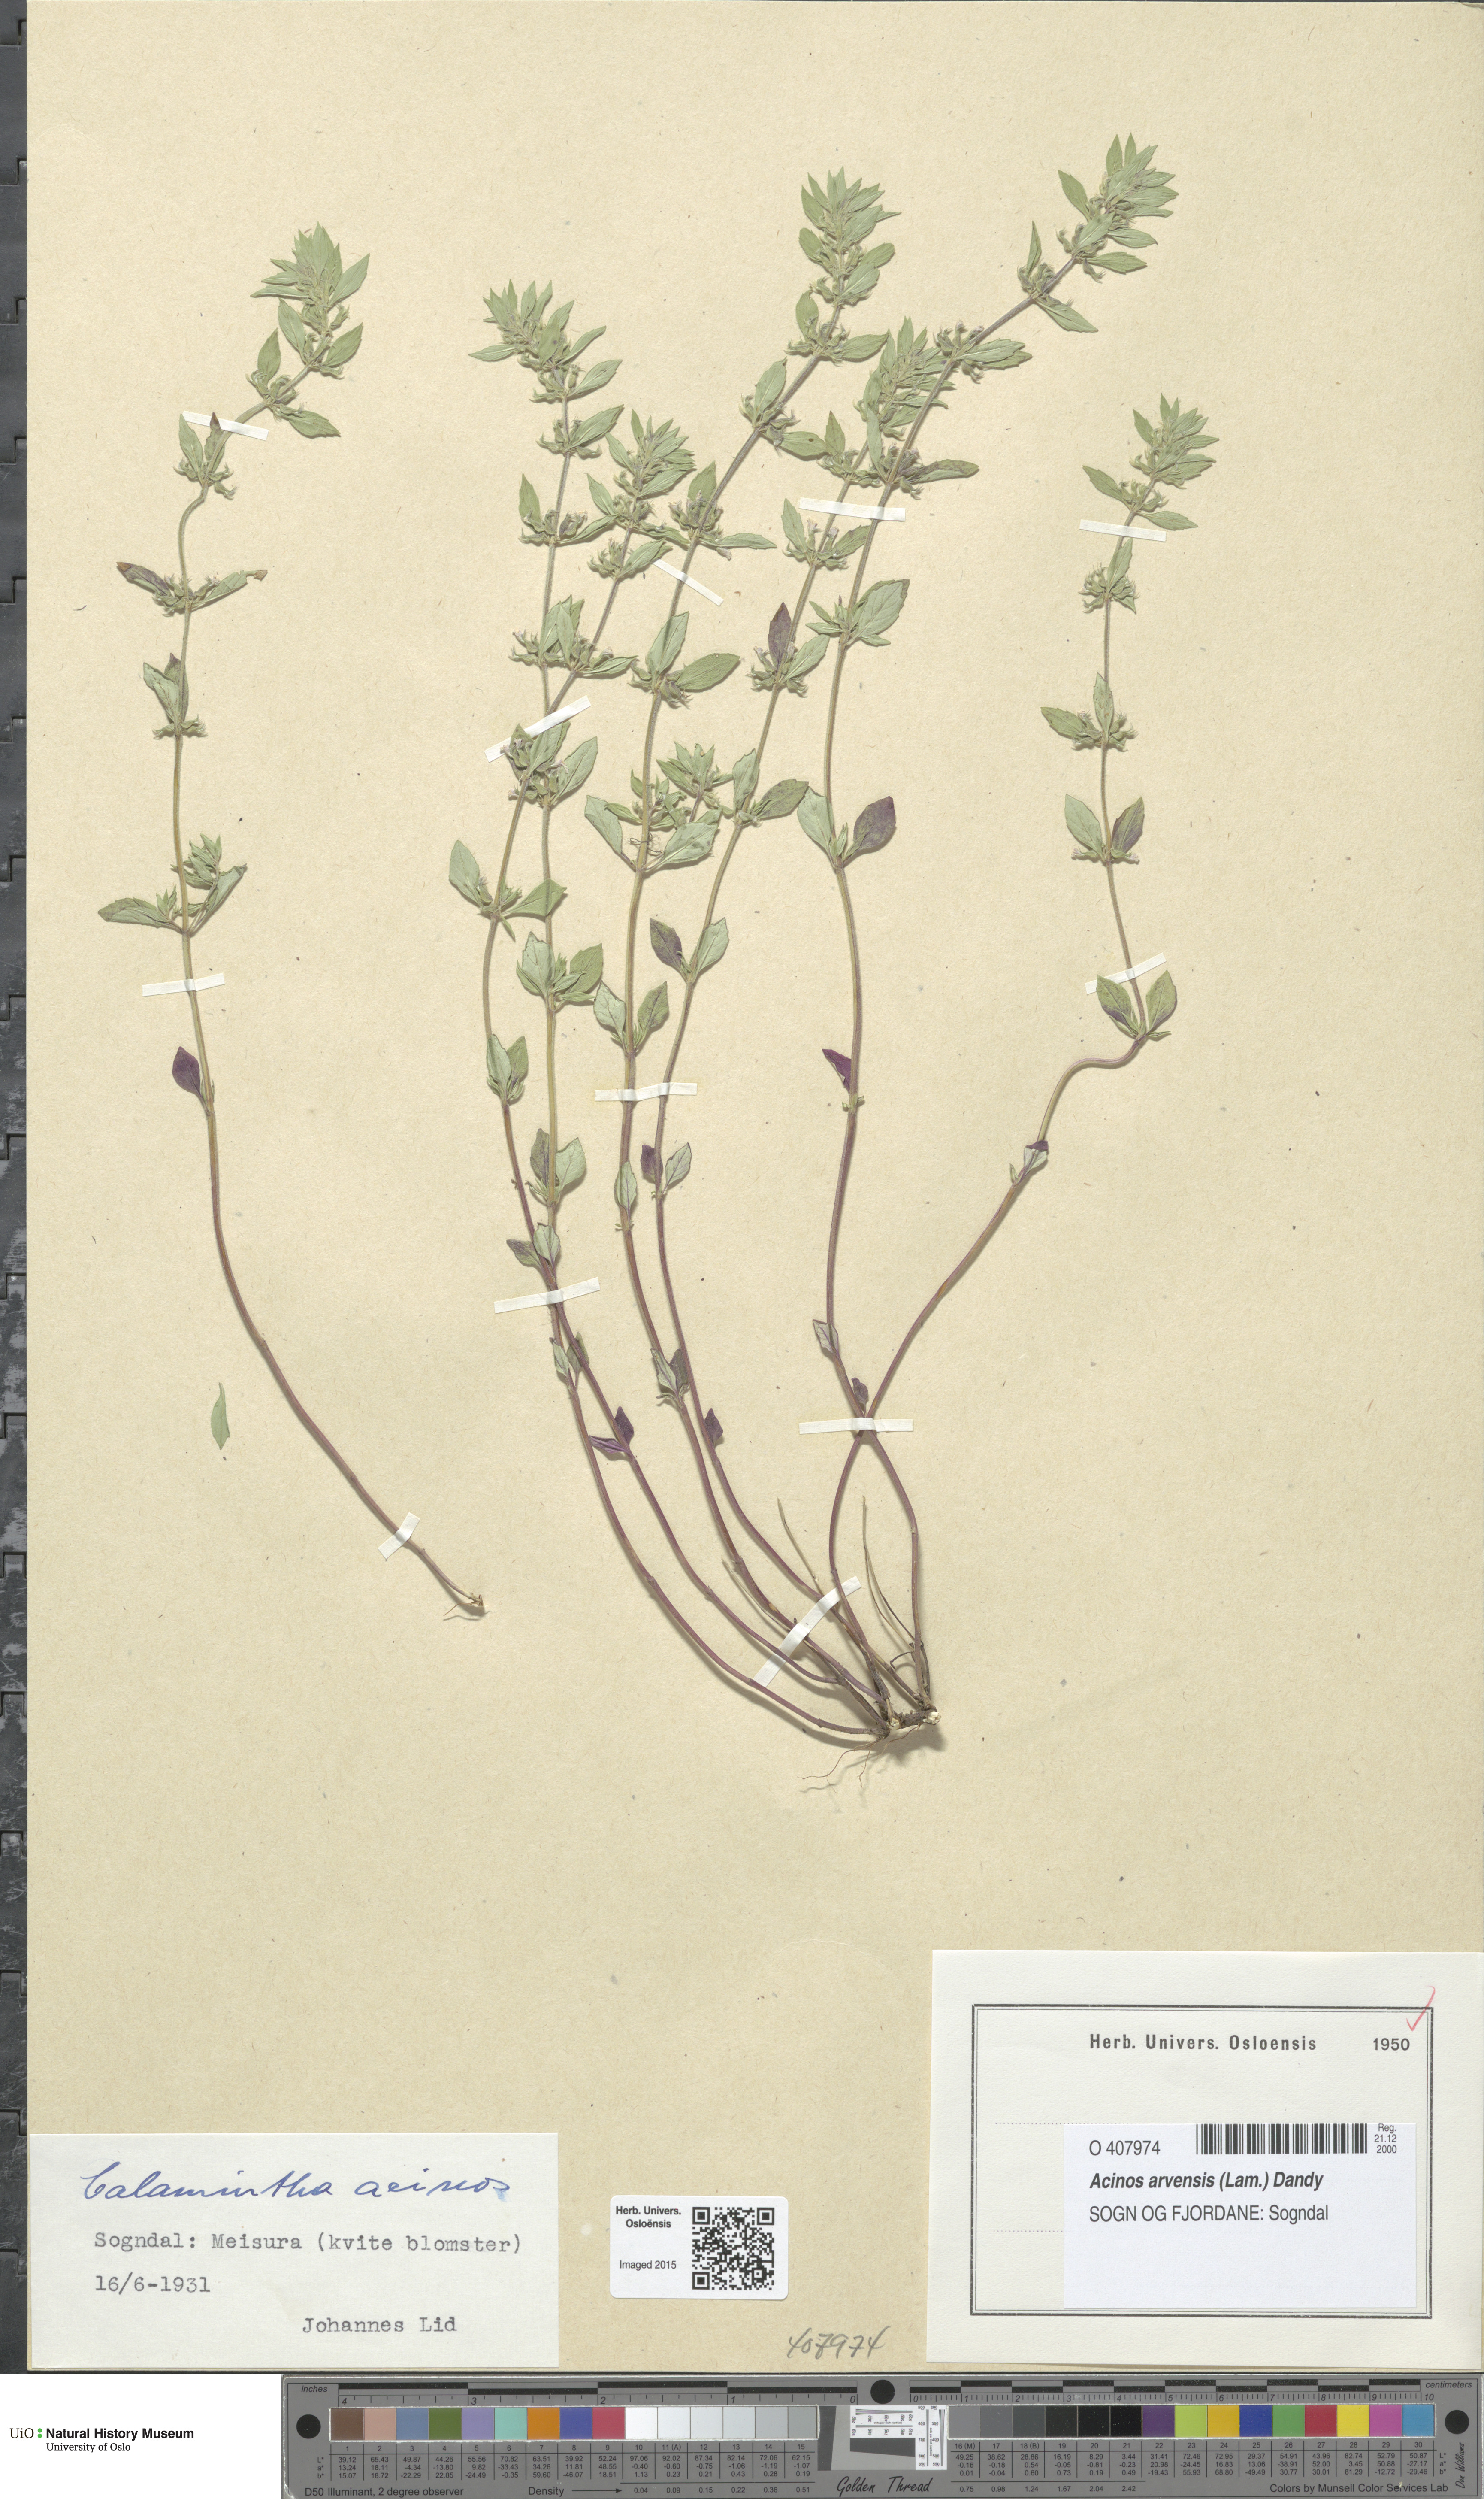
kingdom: Plantae
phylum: Tracheophyta
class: Magnoliopsida
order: Lamiales
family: Lamiaceae
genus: Clinopodium
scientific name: Clinopodium acinos
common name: Basil thyme
